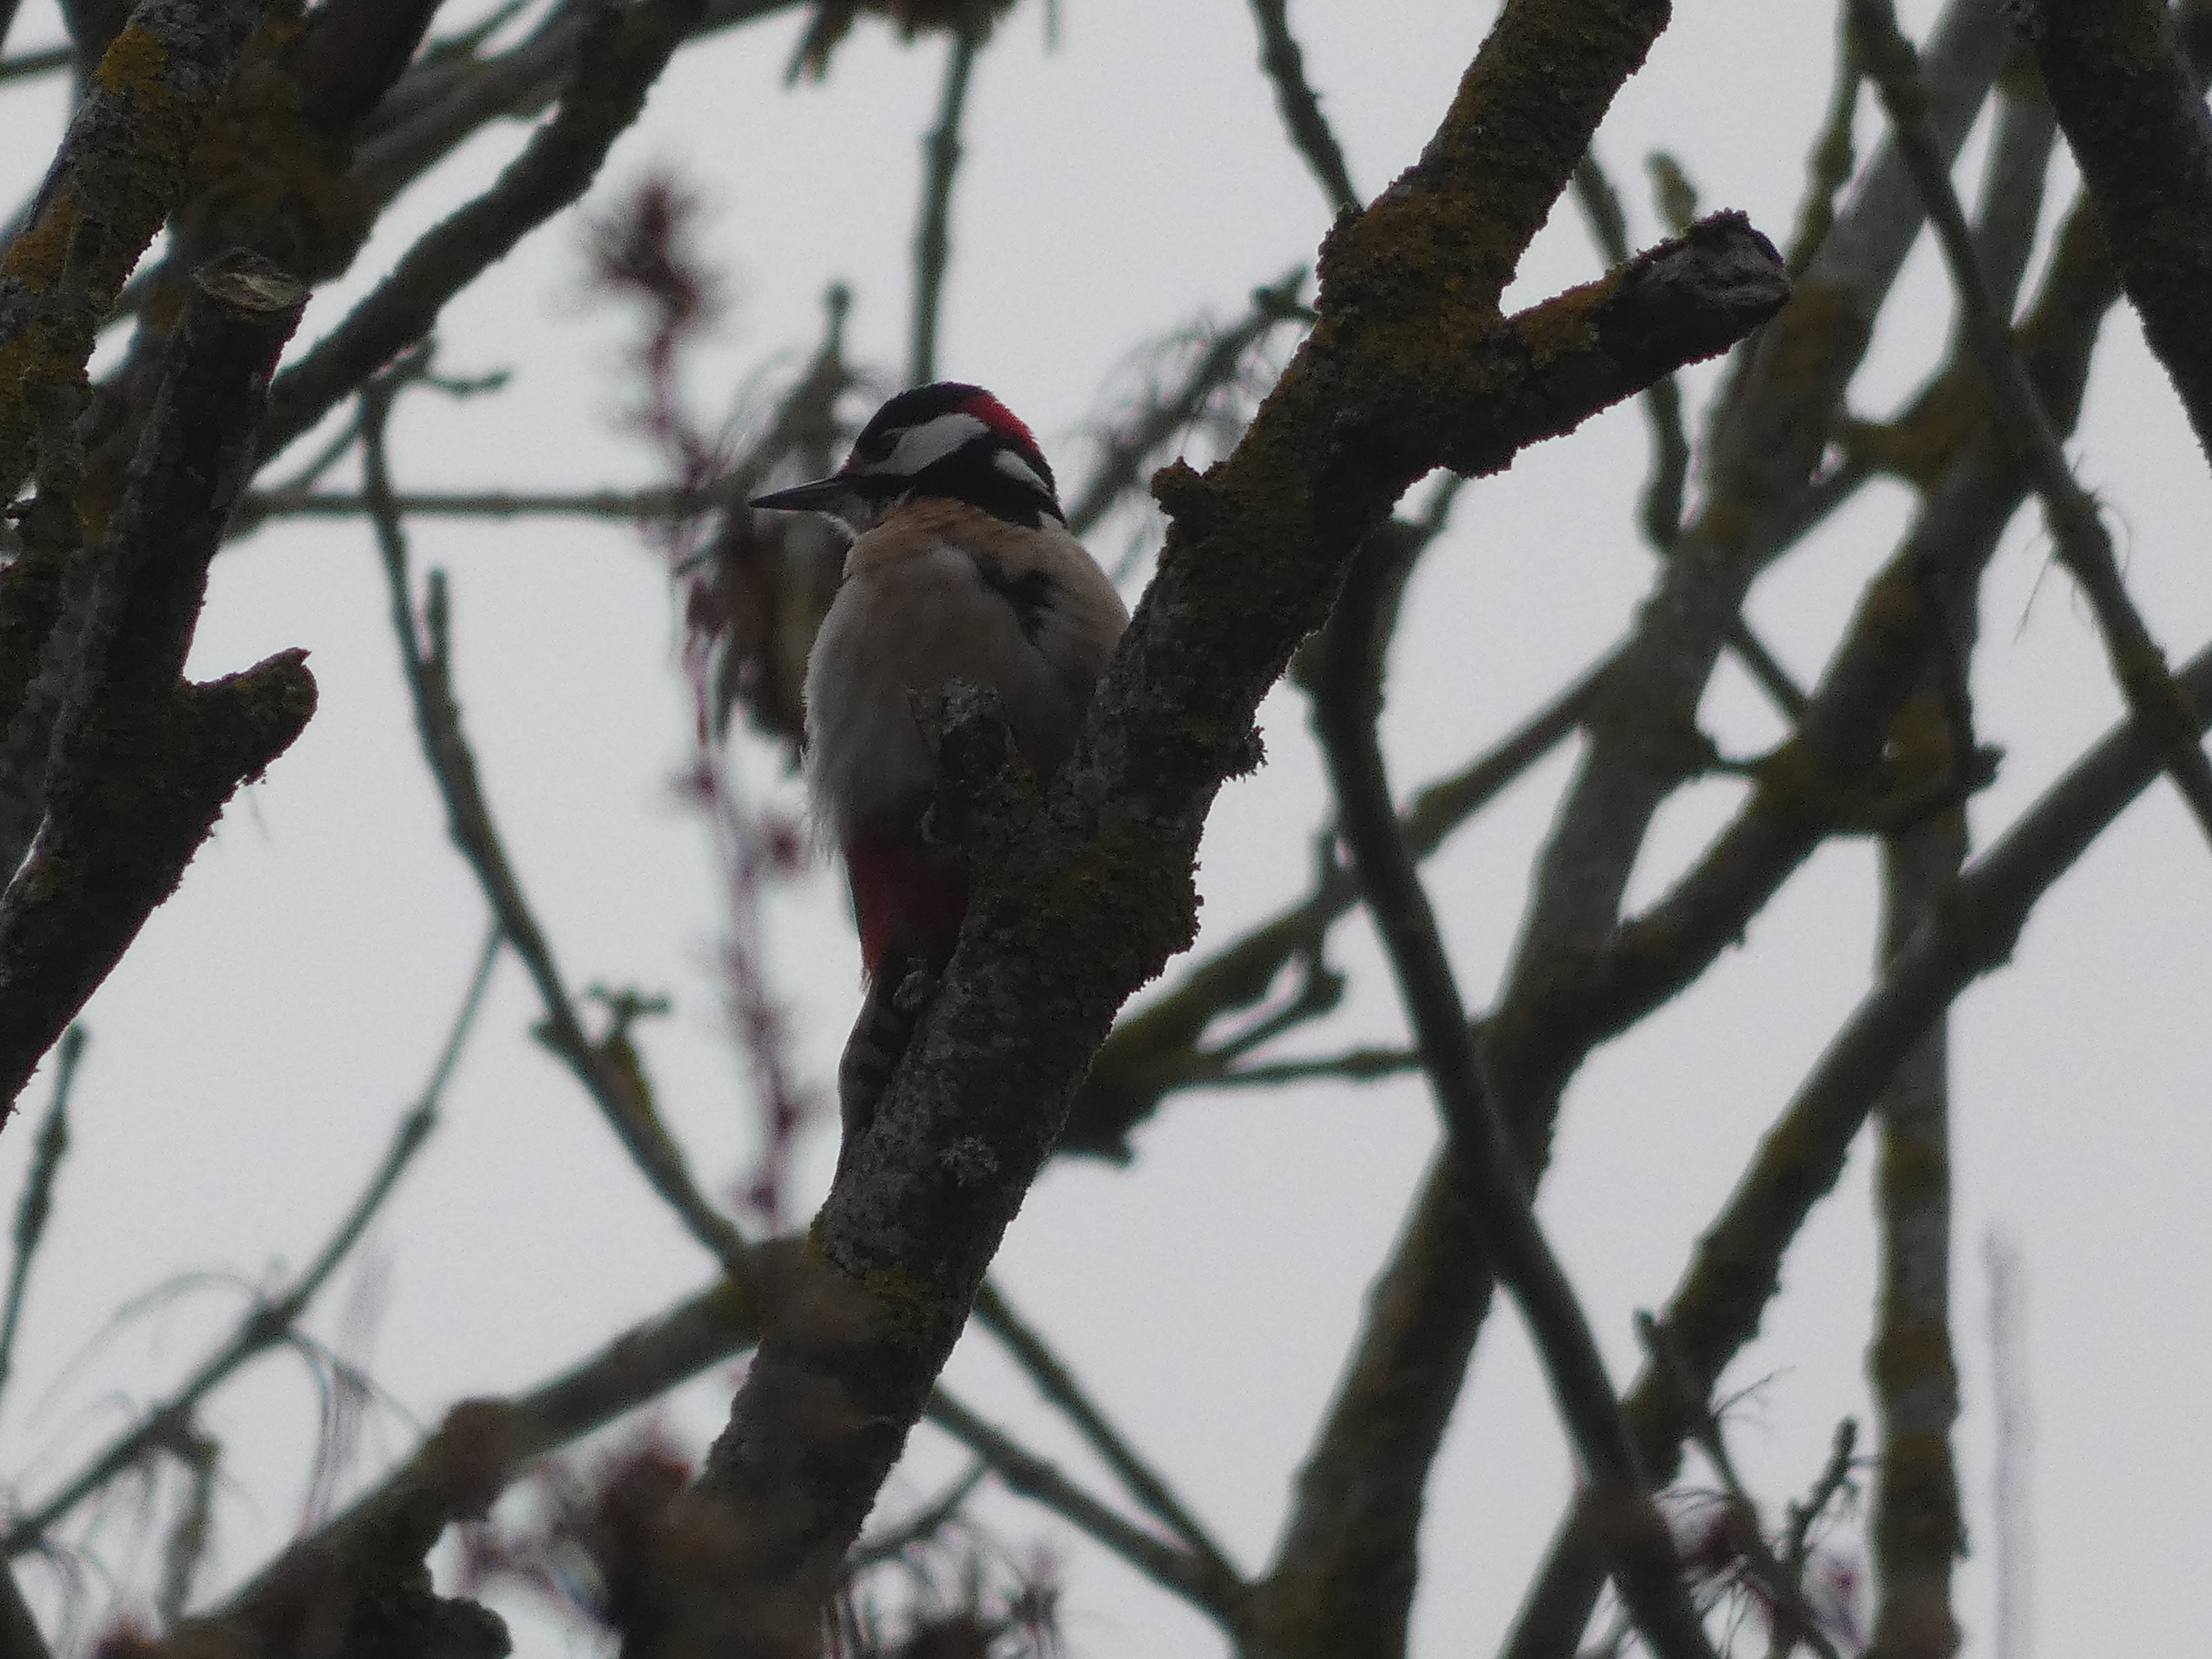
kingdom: Animalia
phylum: Chordata
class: Aves
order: Piciformes
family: Picidae
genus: Dendrocopos
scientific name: Dendrocopos major
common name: Stor flagspætte
